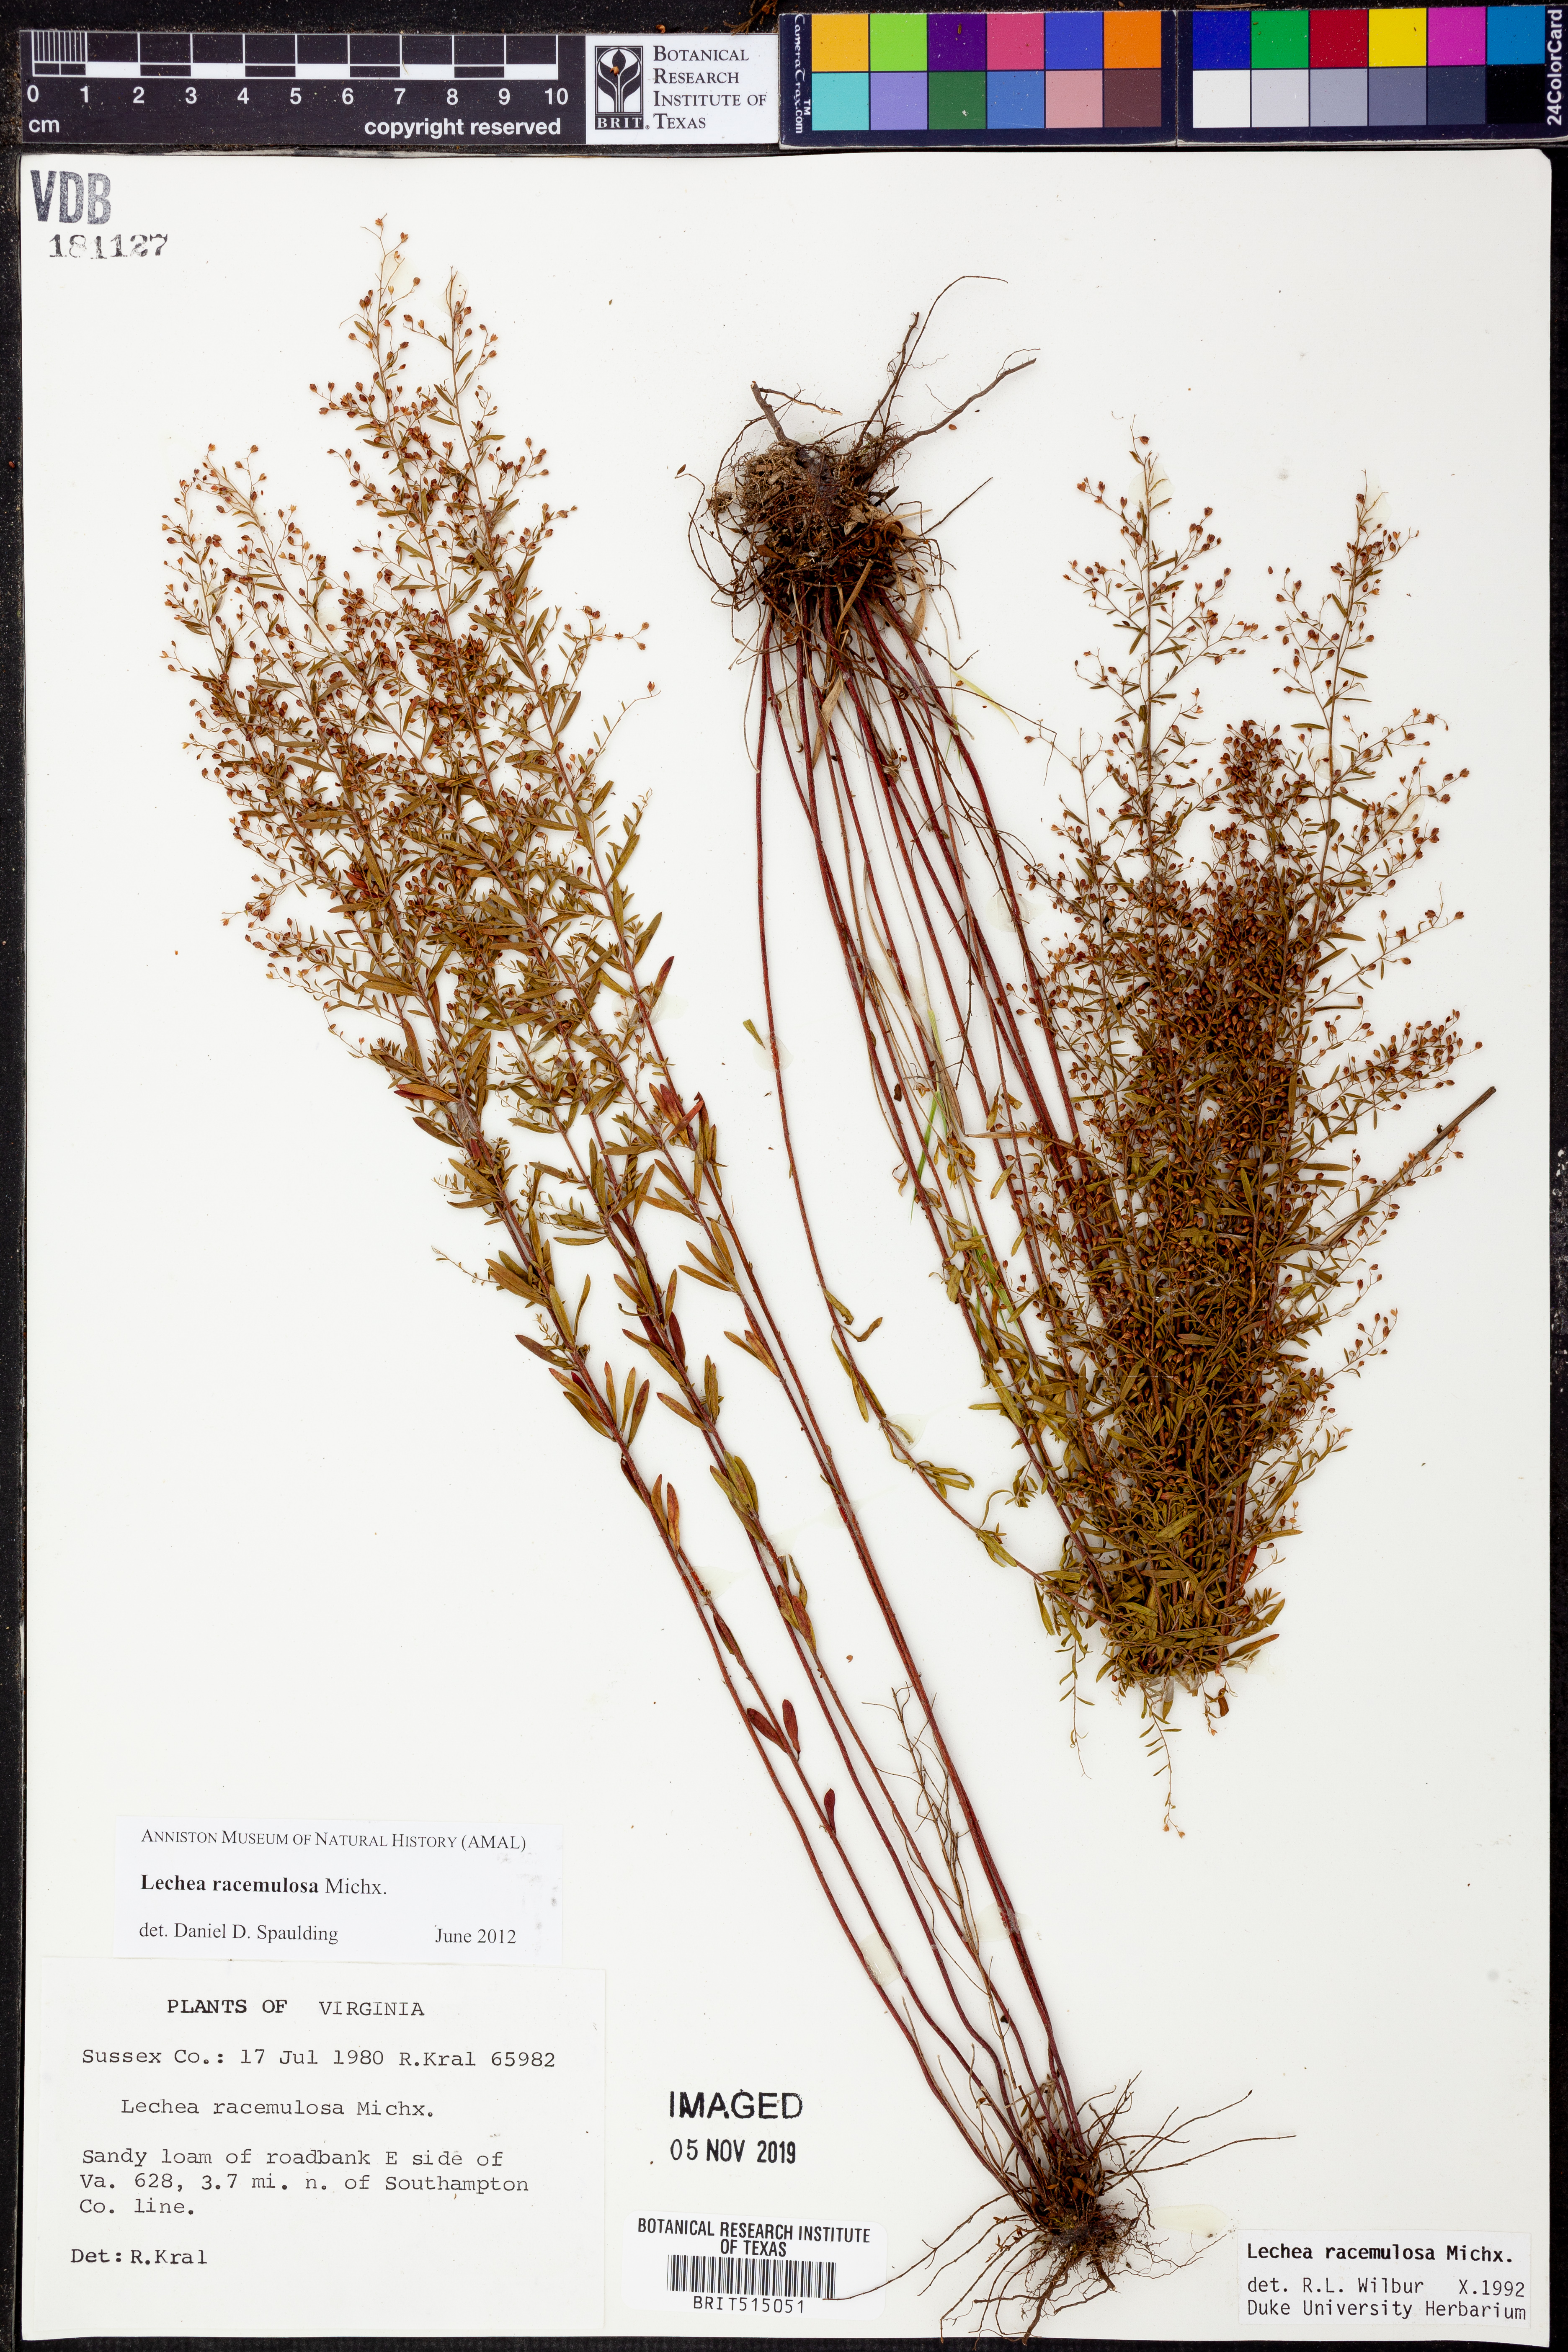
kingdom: Plantae
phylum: Tracheophyta
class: Magnoliopsida
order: Malvales
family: Cistaceae
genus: Lechea
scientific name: Lechea racemulosa
